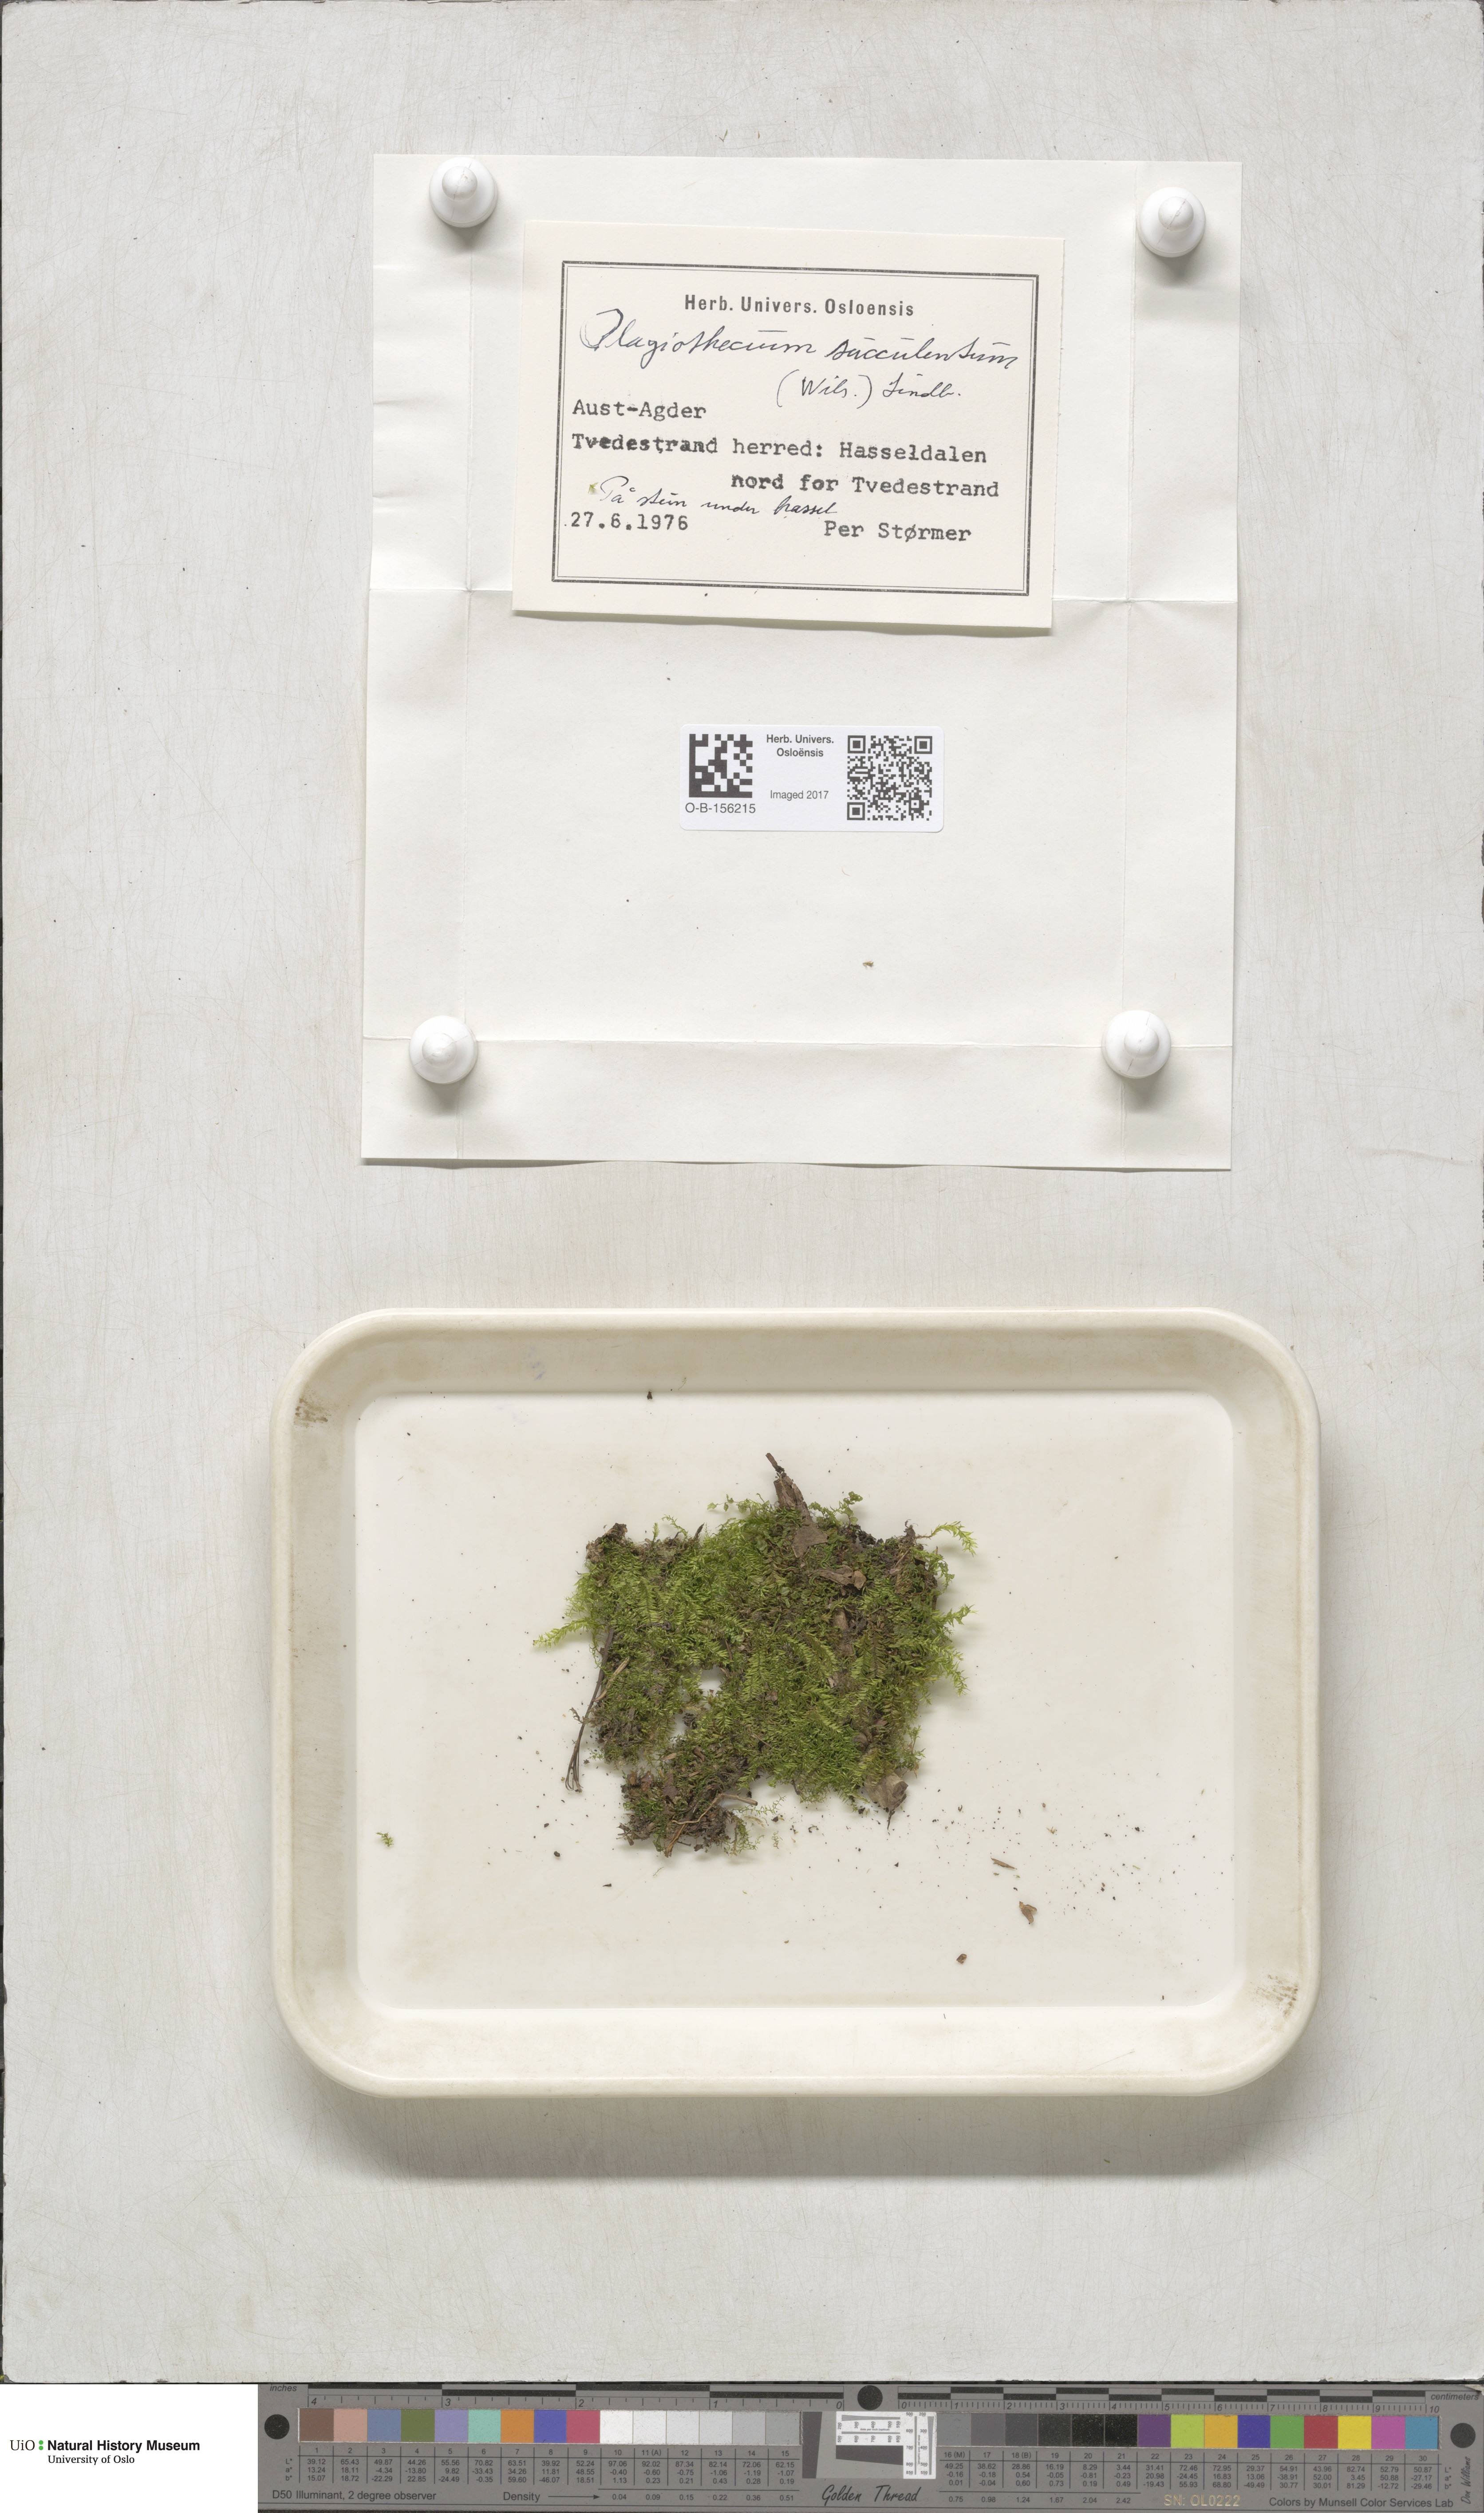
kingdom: Plantae
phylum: Bryophyta
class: Bryopsida
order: Hypnales
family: Plagiotheciaceae
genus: Plagiothecium
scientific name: Plagiothecium nemorale
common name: Woodsy silk-moss
